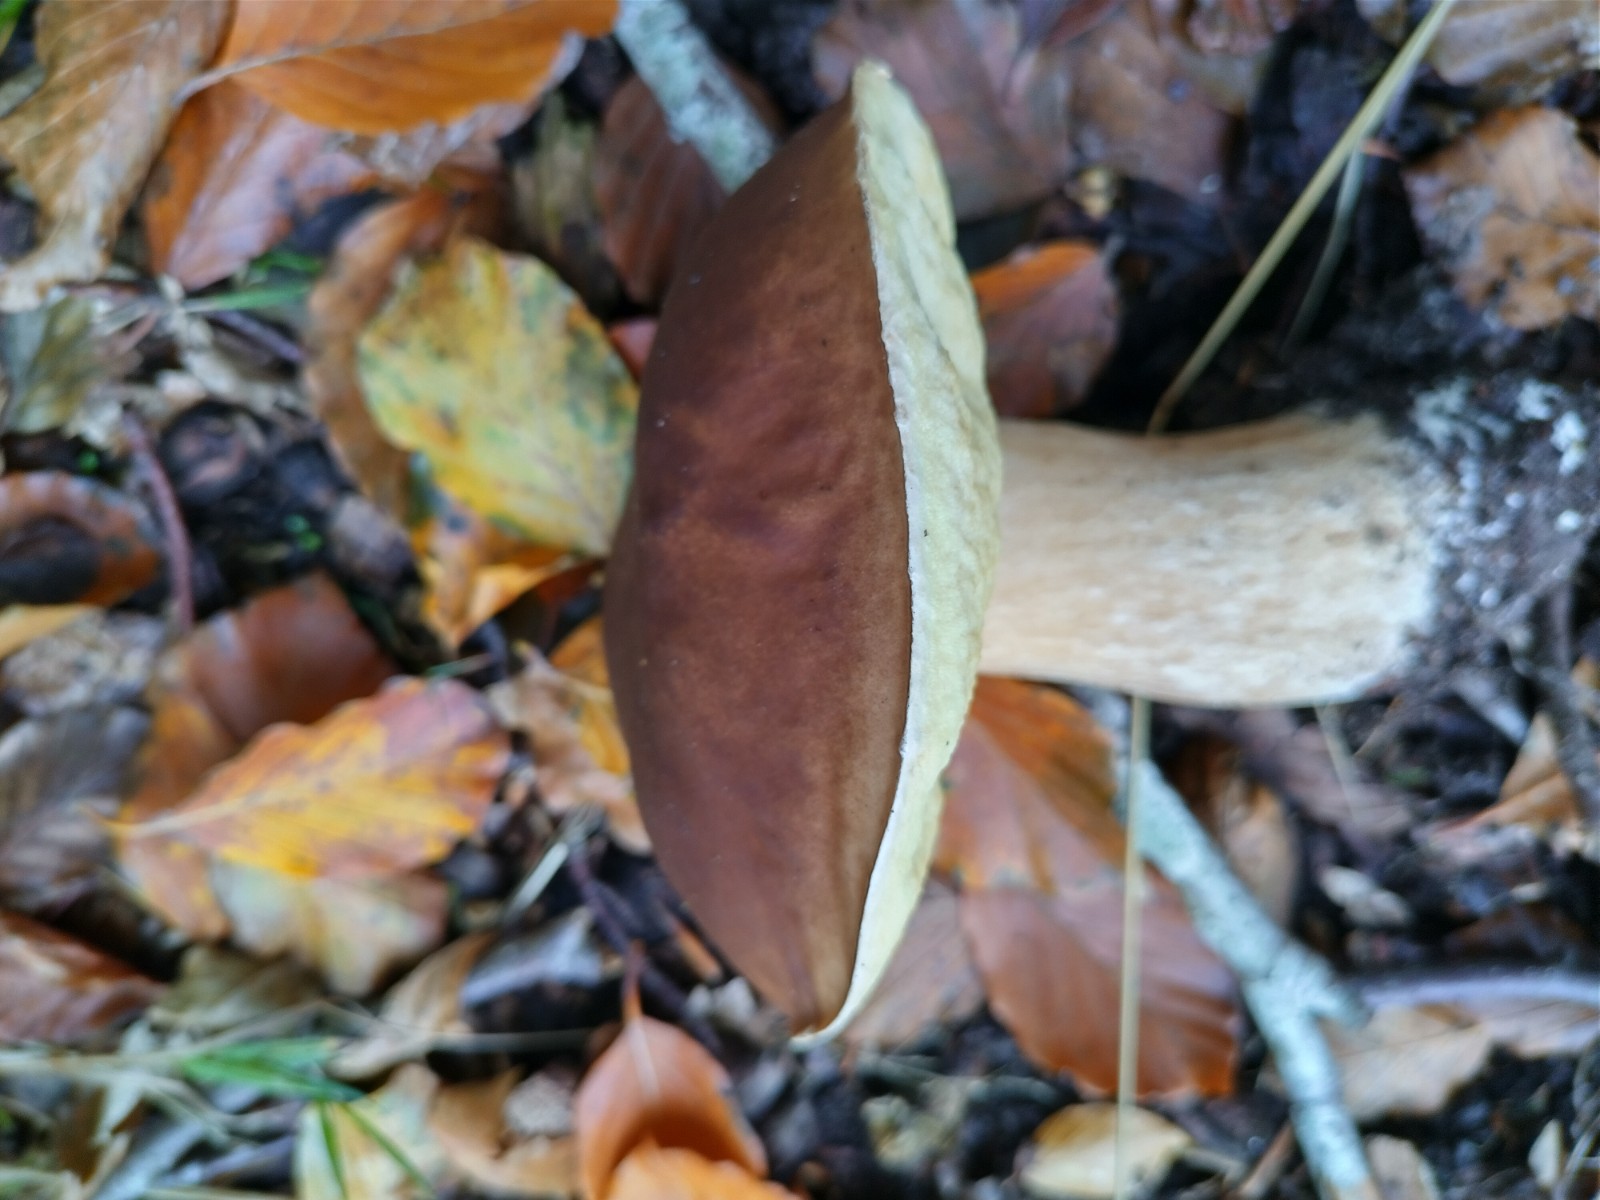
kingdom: Fungi
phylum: Basidiomycota
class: Agaricomycetes
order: Boletales
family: Boletaceae
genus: Boletus
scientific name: Boletus edulis
